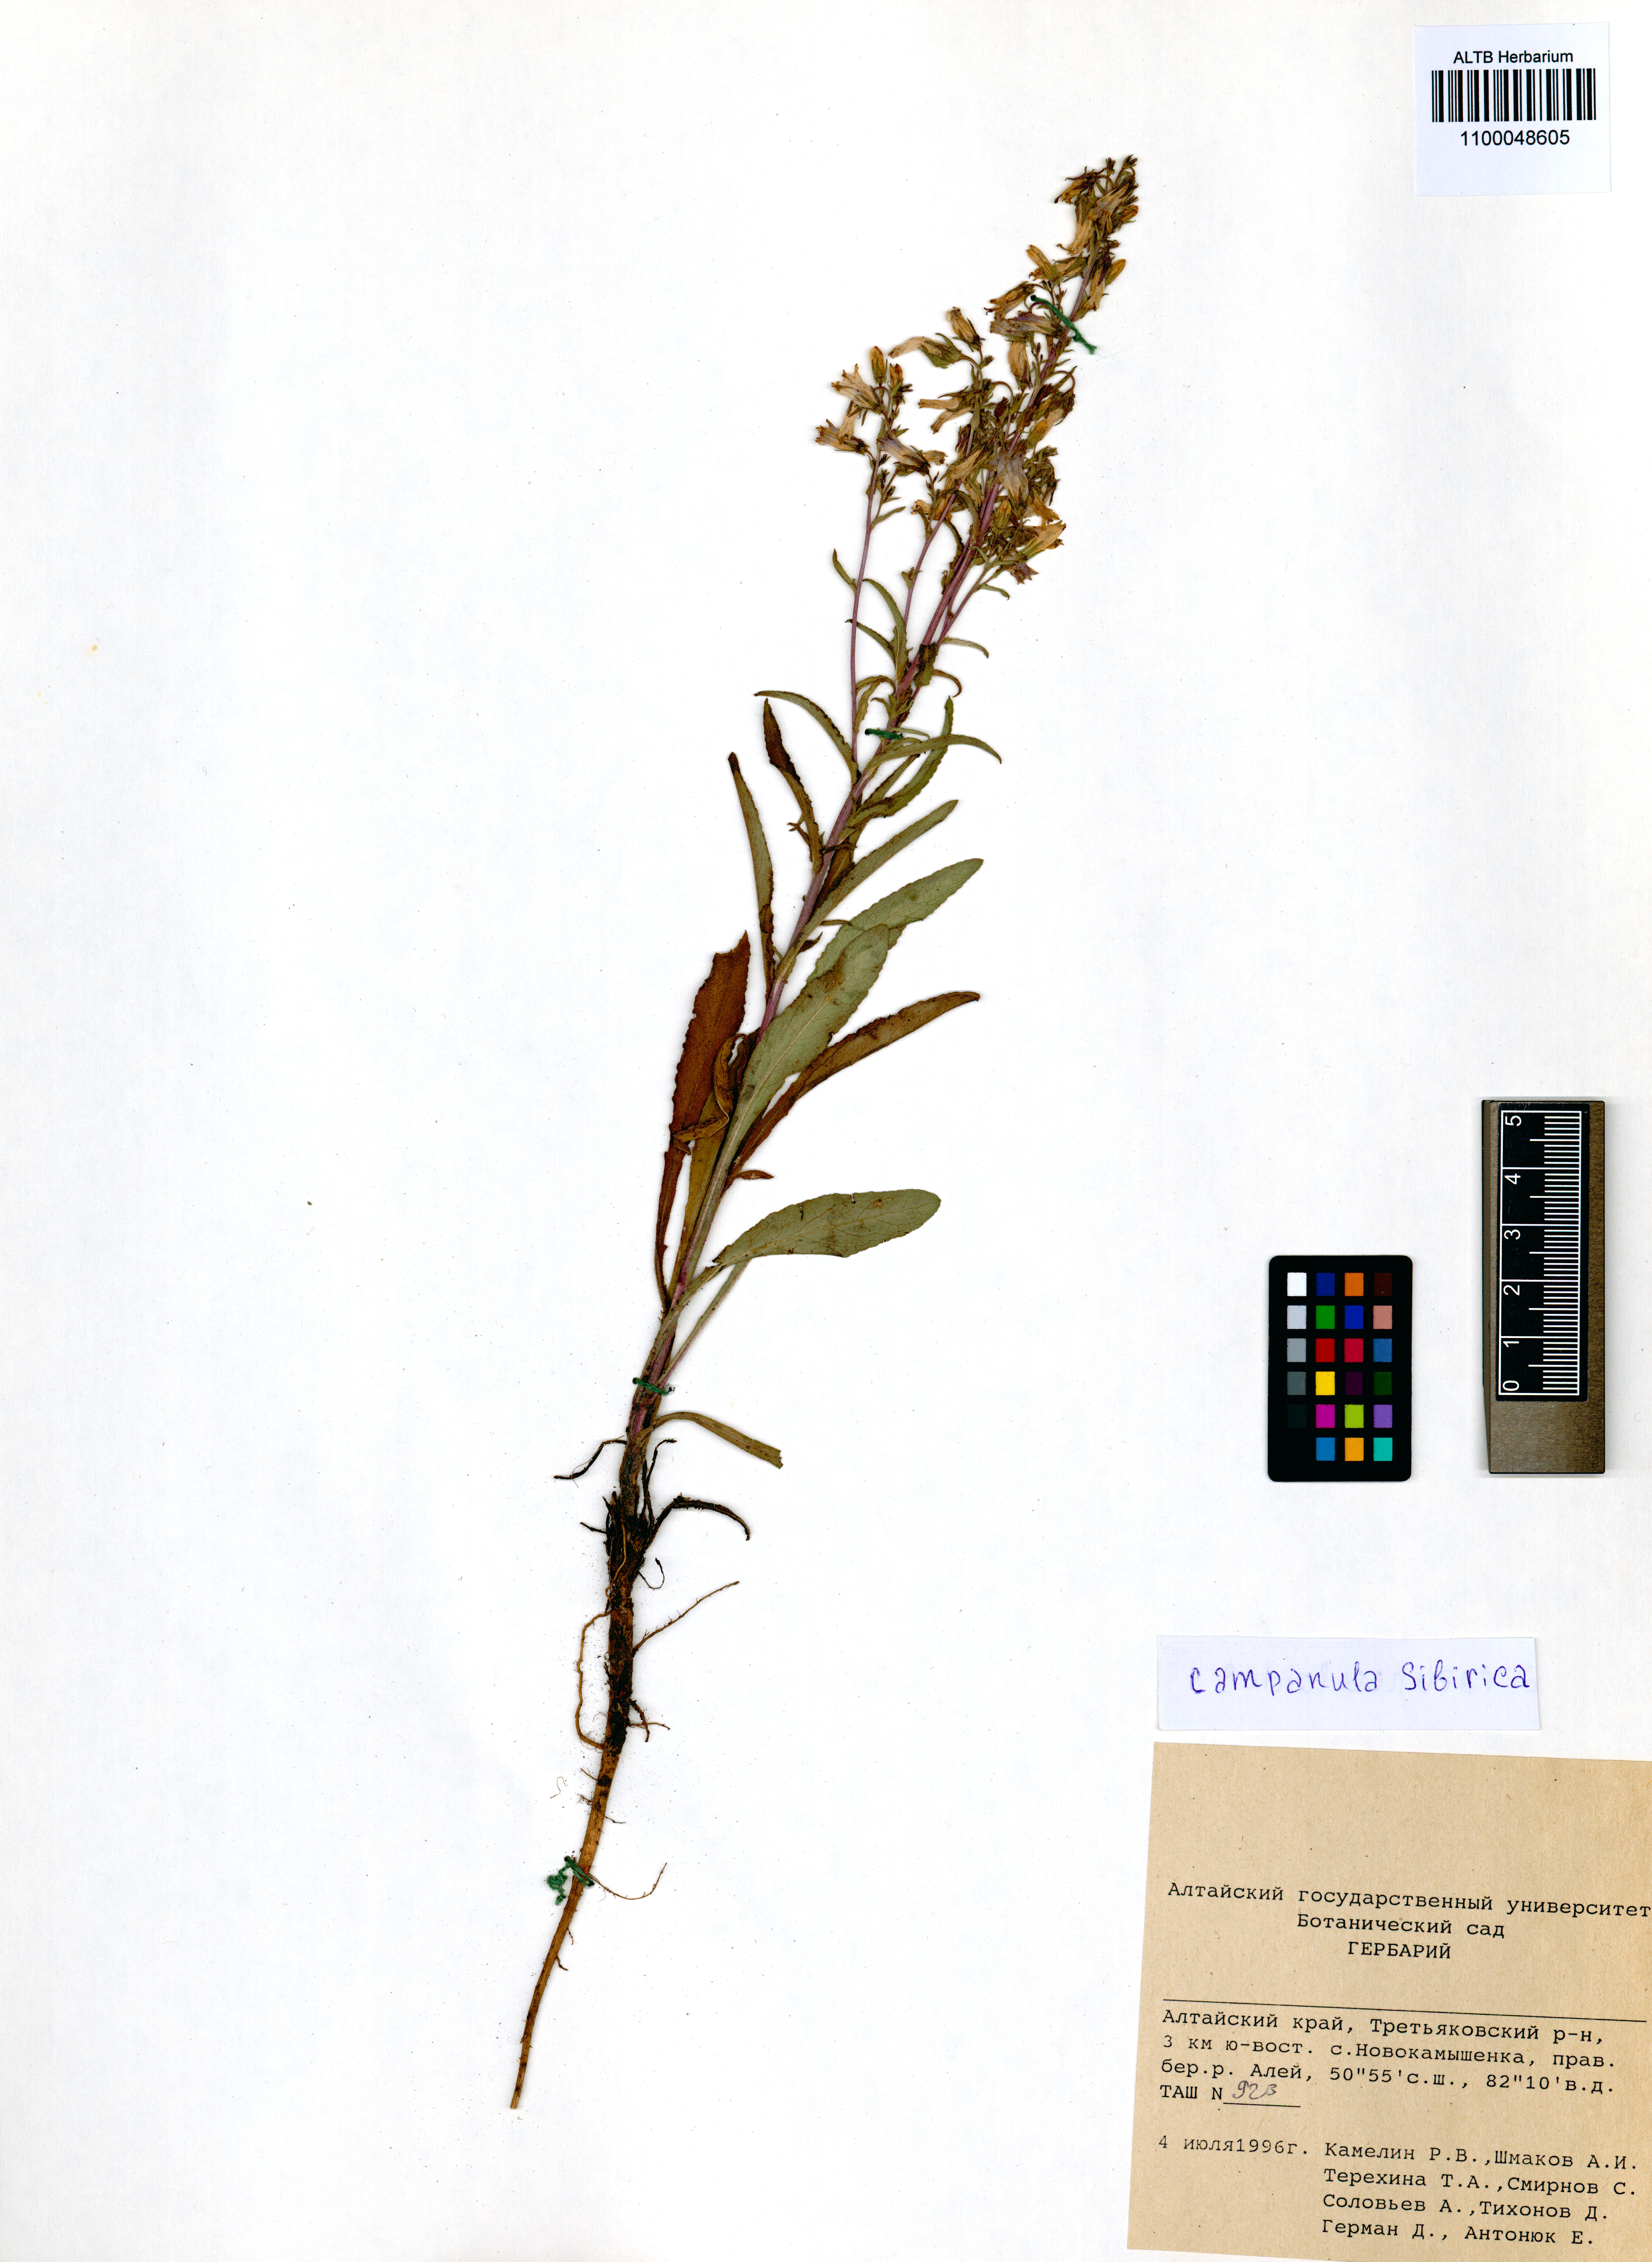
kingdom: Plantae
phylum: Tracheophyta
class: Magnoliopsida
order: Asterales
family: Campanulaceae
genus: Campanula
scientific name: Campanula sibirica
